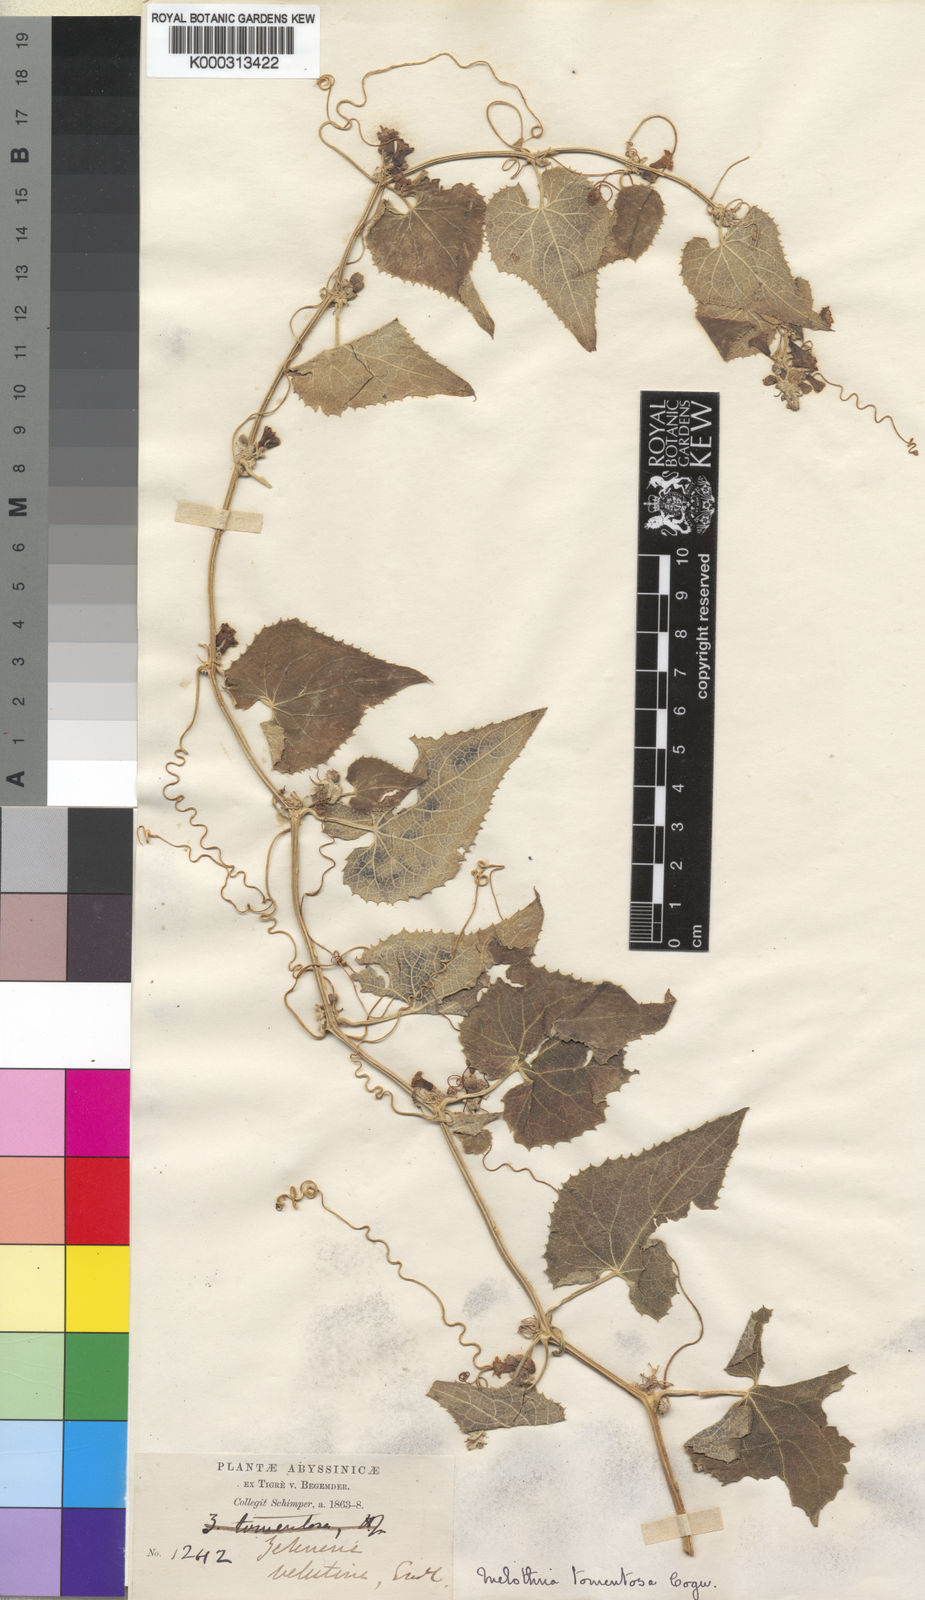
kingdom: Plantae
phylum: Tracheophyta
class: Magnoliopsida
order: Cucurbitales
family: Cucurbitaceae
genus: Zehneria
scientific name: Zehneria scabra
